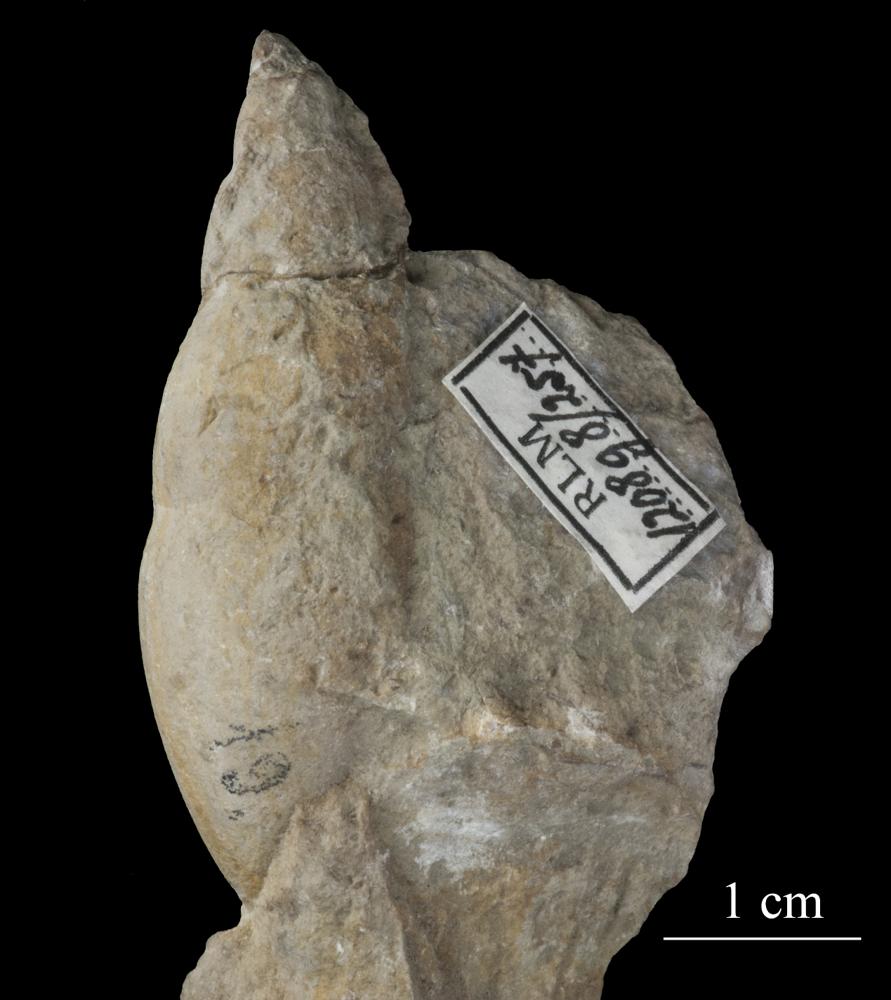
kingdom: Animalia
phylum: Mollusca
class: Gastropoda
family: Subulitidae
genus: Subulites
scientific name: Subulites amphora
